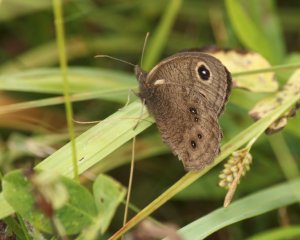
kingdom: Animalia
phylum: Arthropoda
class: Insecta
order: Lepidoptera
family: Nymphalidae
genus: Cercyonis
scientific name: Cercyonis pegala
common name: Common Wood-Nymph
